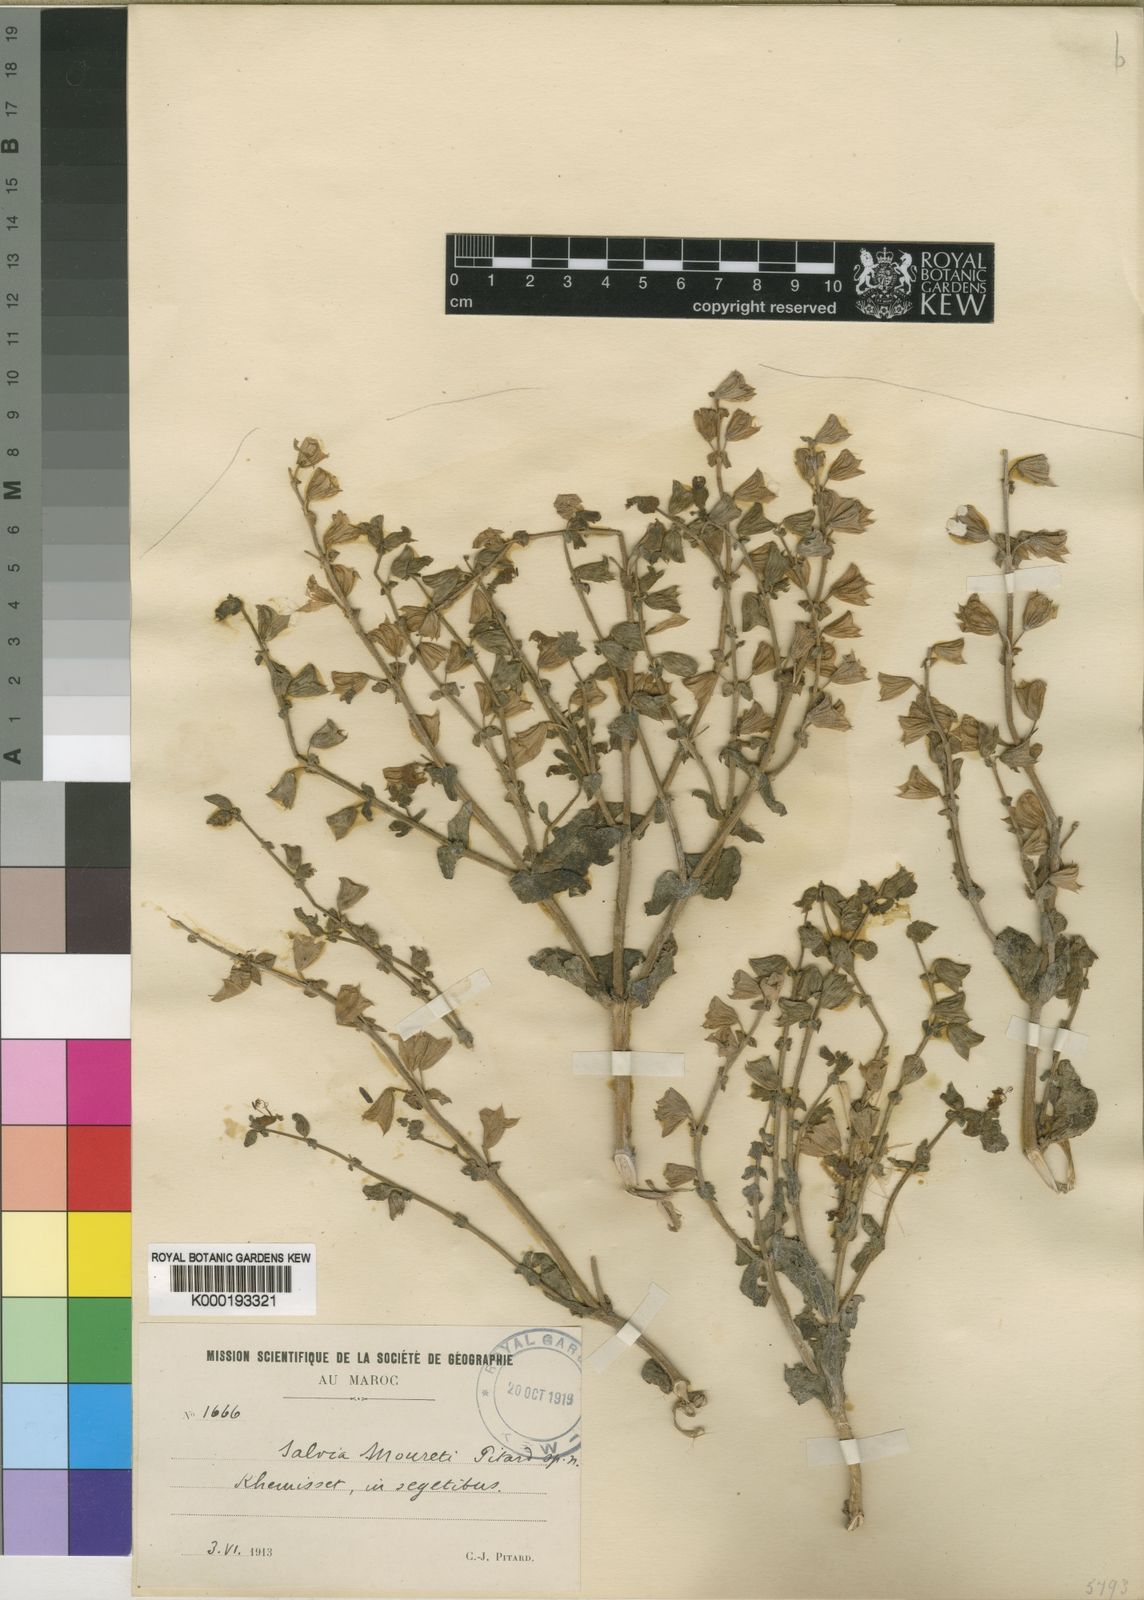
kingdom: Plantae
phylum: Tracheophyta
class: Magnoliopsida
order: Lamiales
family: Lamiaceae
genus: Salvia
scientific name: Salvia mouretii
